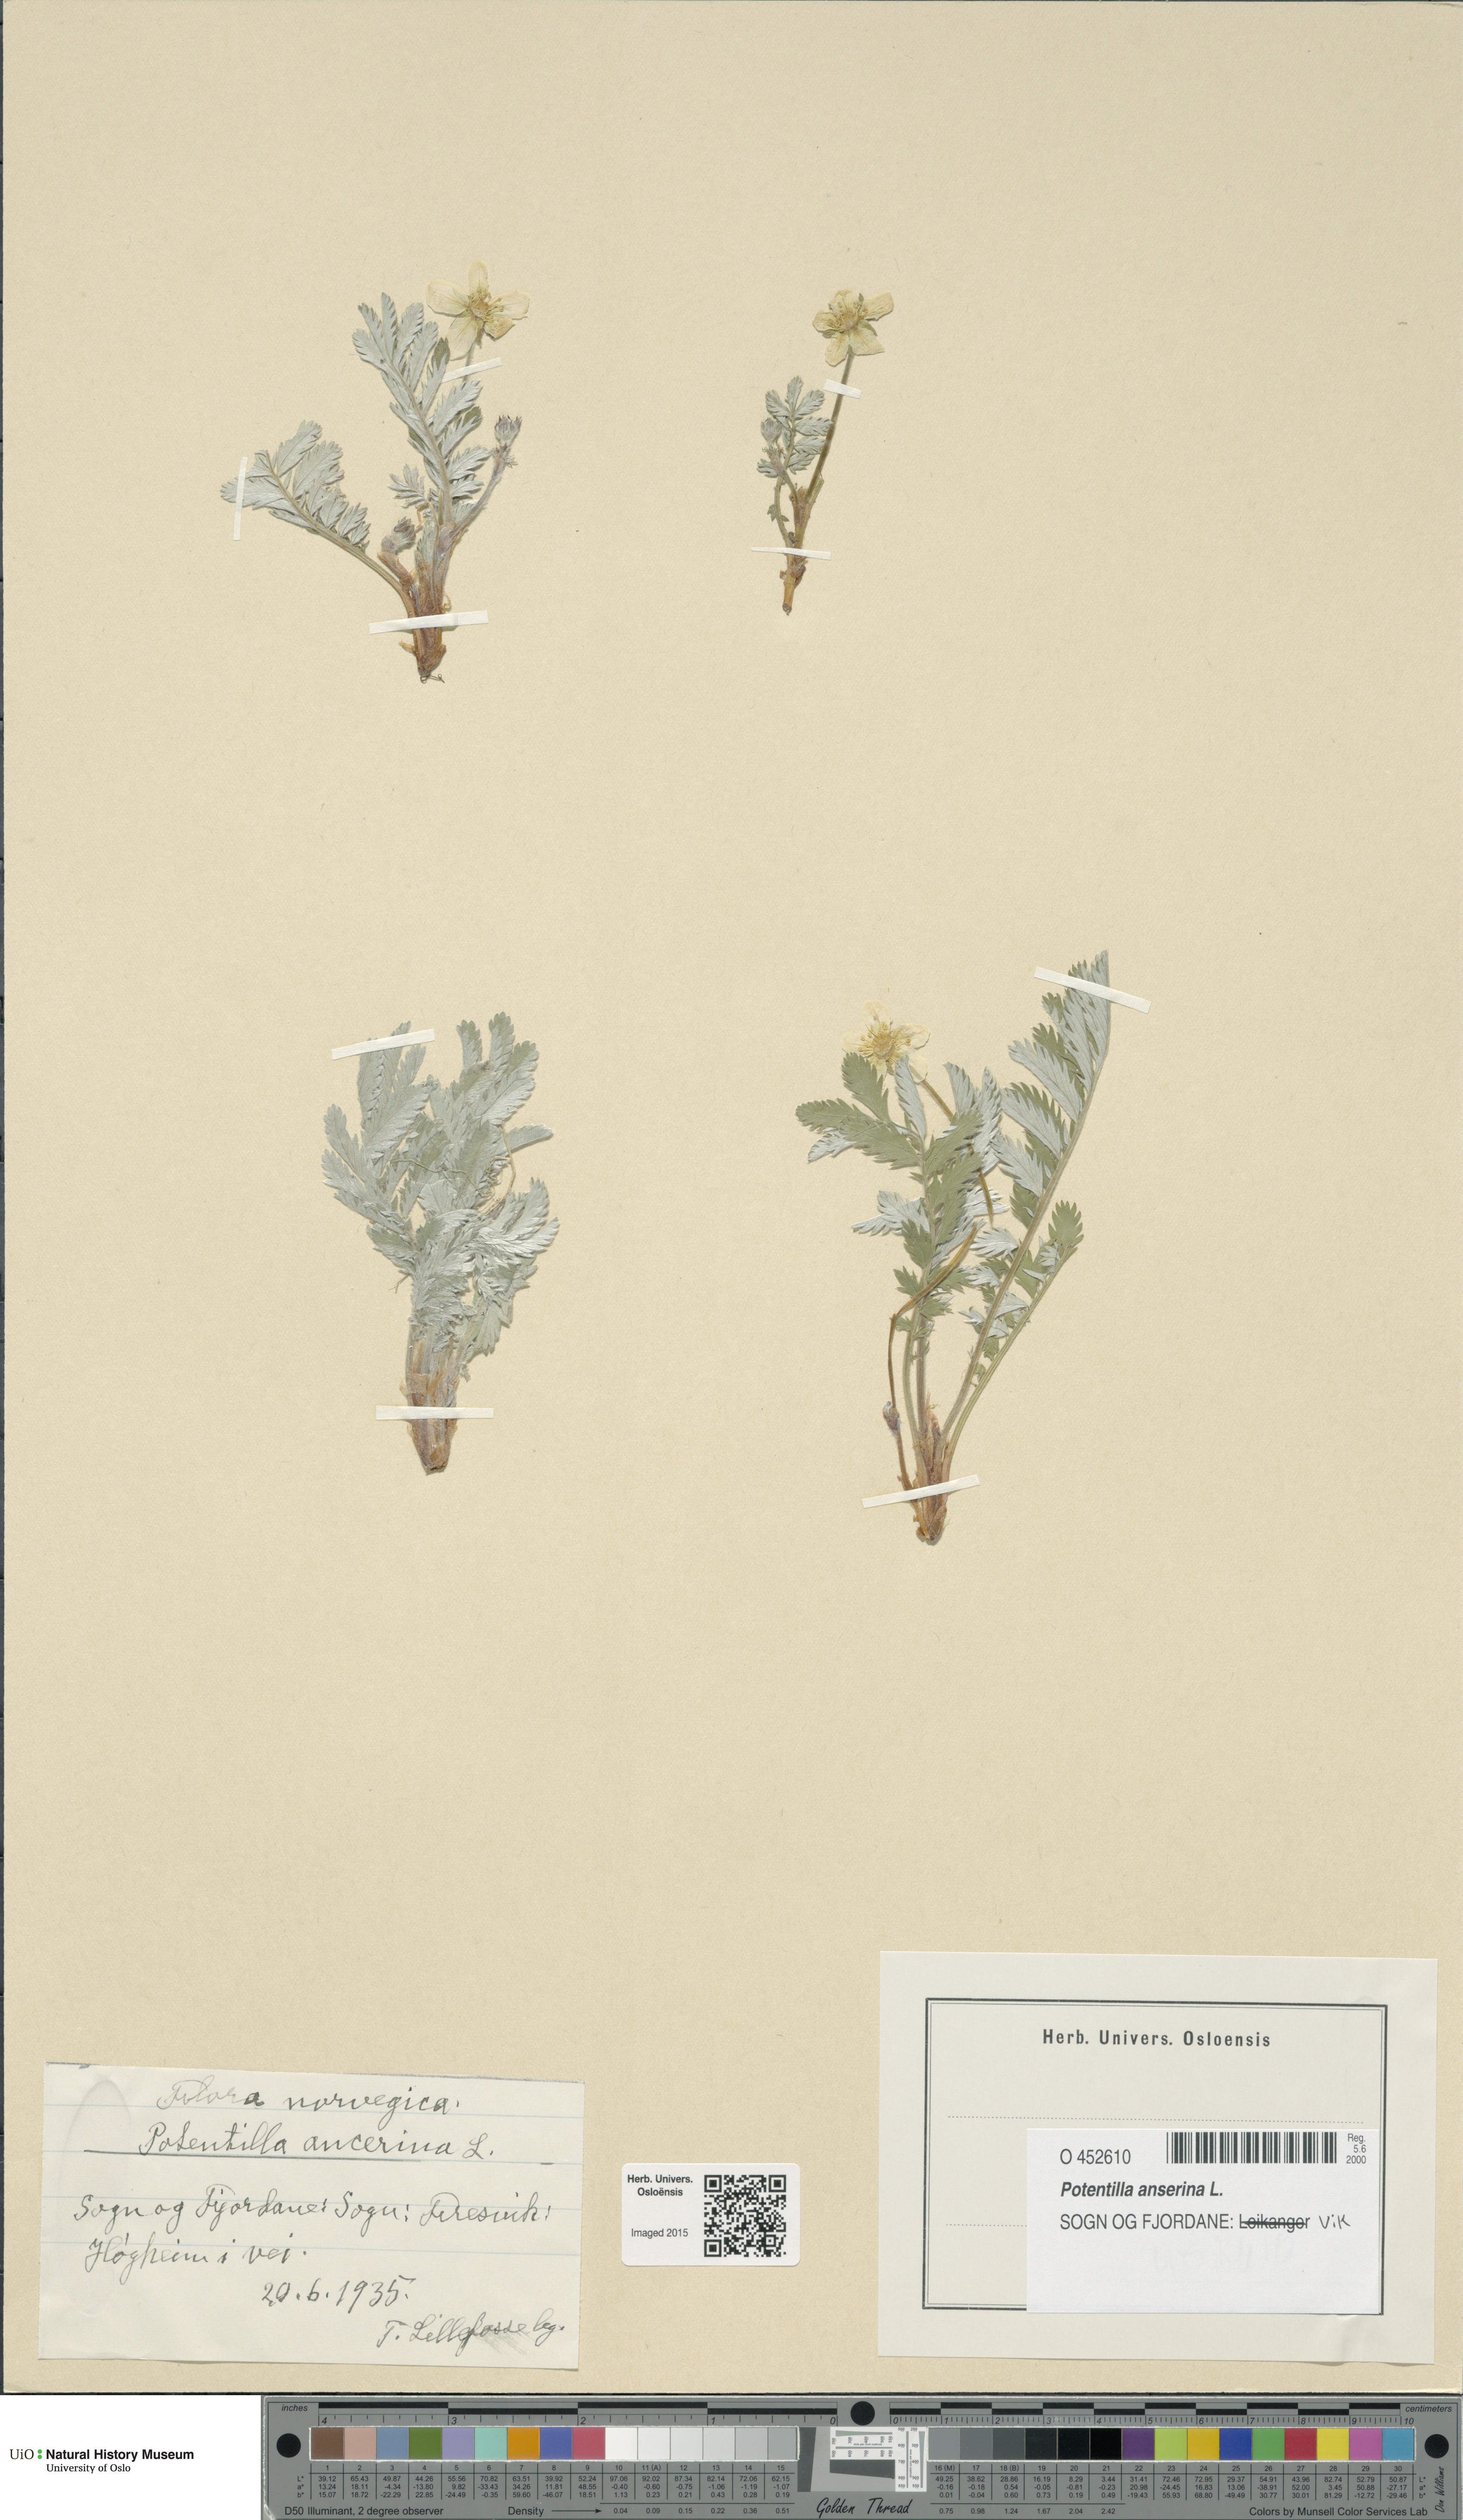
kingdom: Plantae
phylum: Tracheophyta
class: Magnoliopsida
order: Rosales
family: Rosaceae
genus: Argentina
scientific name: Argentina anserina
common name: Common silverweed
